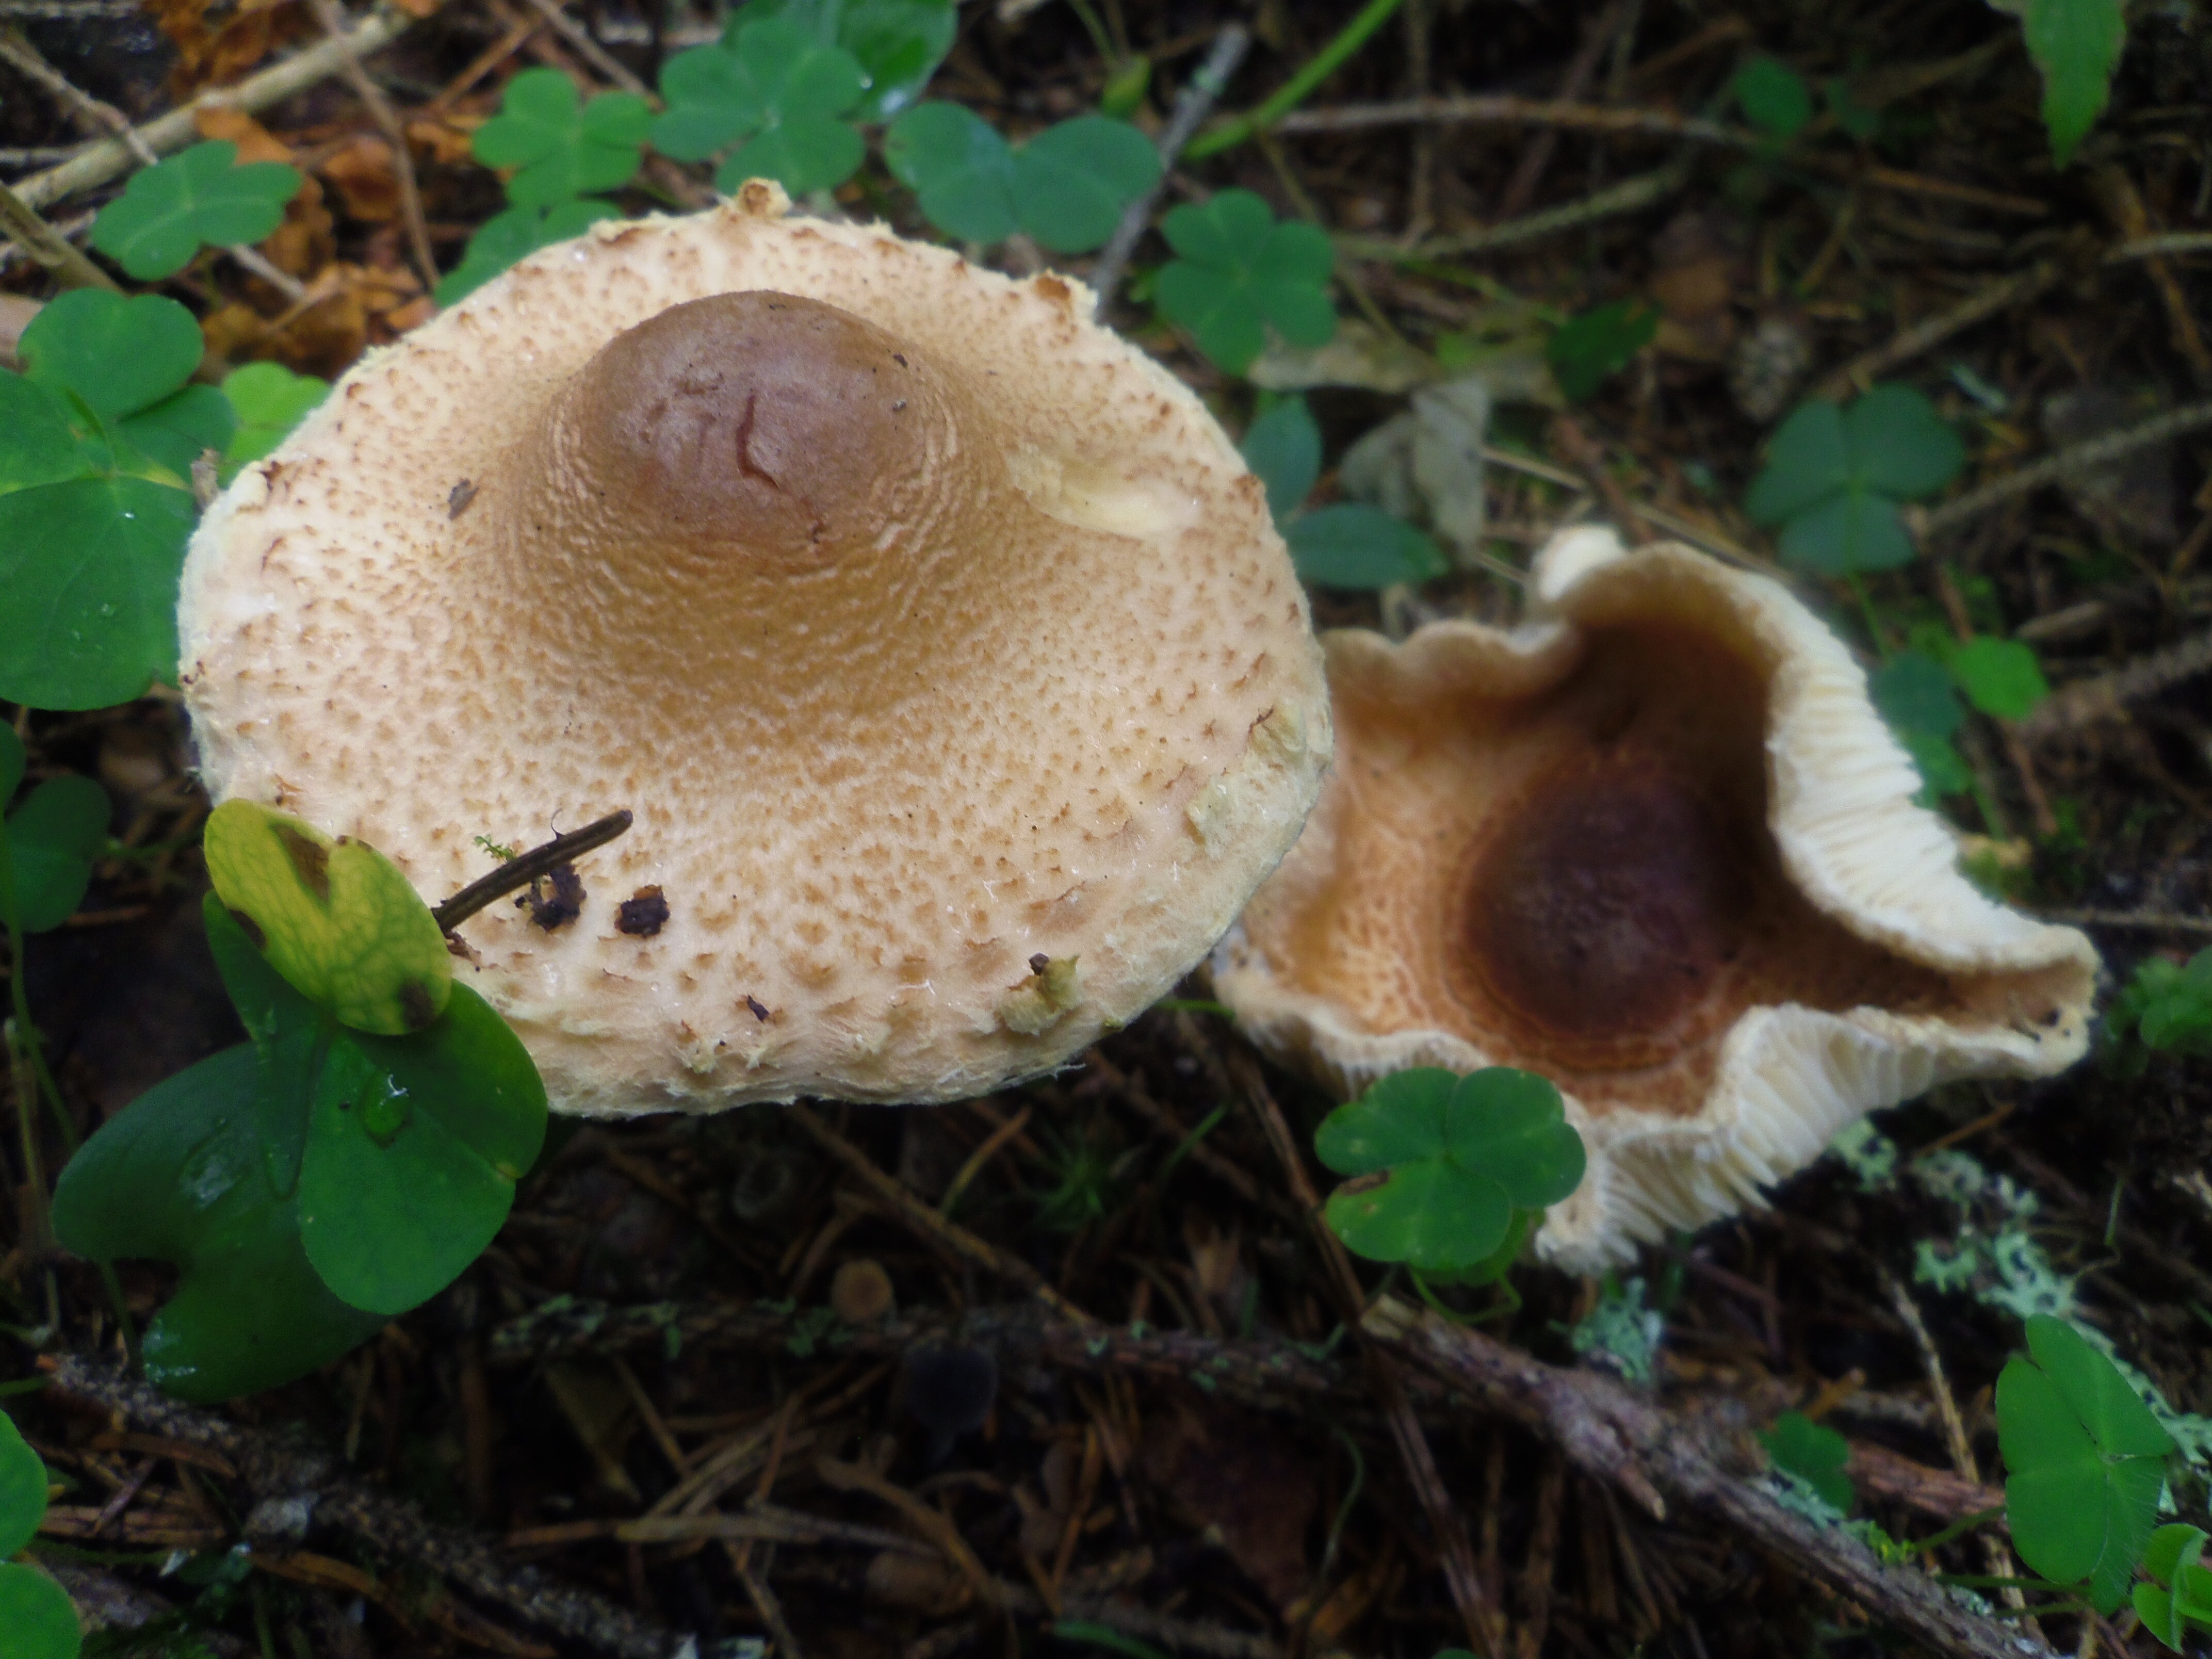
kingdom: Fungi
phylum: Basidiomycota
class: Agaricomycetes
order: Agaricales
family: Agaricaceae
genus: Lepiota
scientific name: Lepiota magnispora
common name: Yellowfoot dapperling
